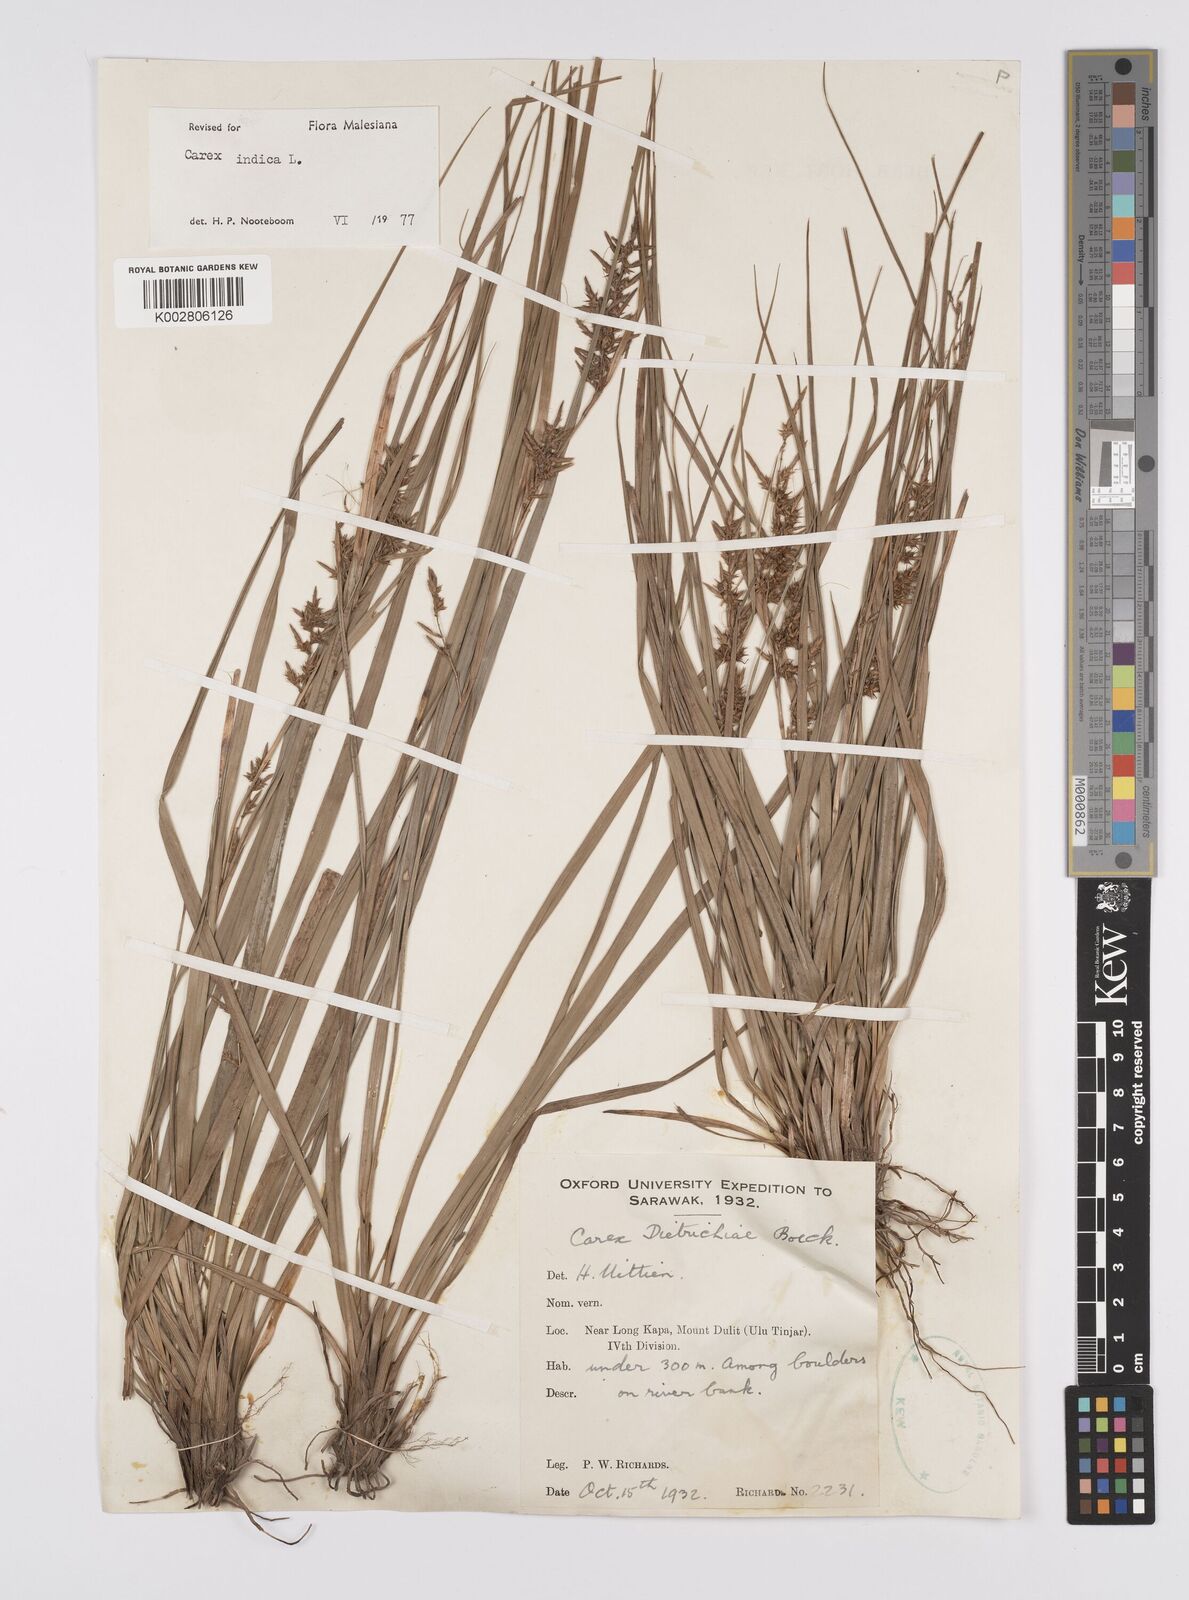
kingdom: Plantae
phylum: Tracheophyta
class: Liliopsida
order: Poales
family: Cyperaceae
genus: Carex
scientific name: Carex indica
